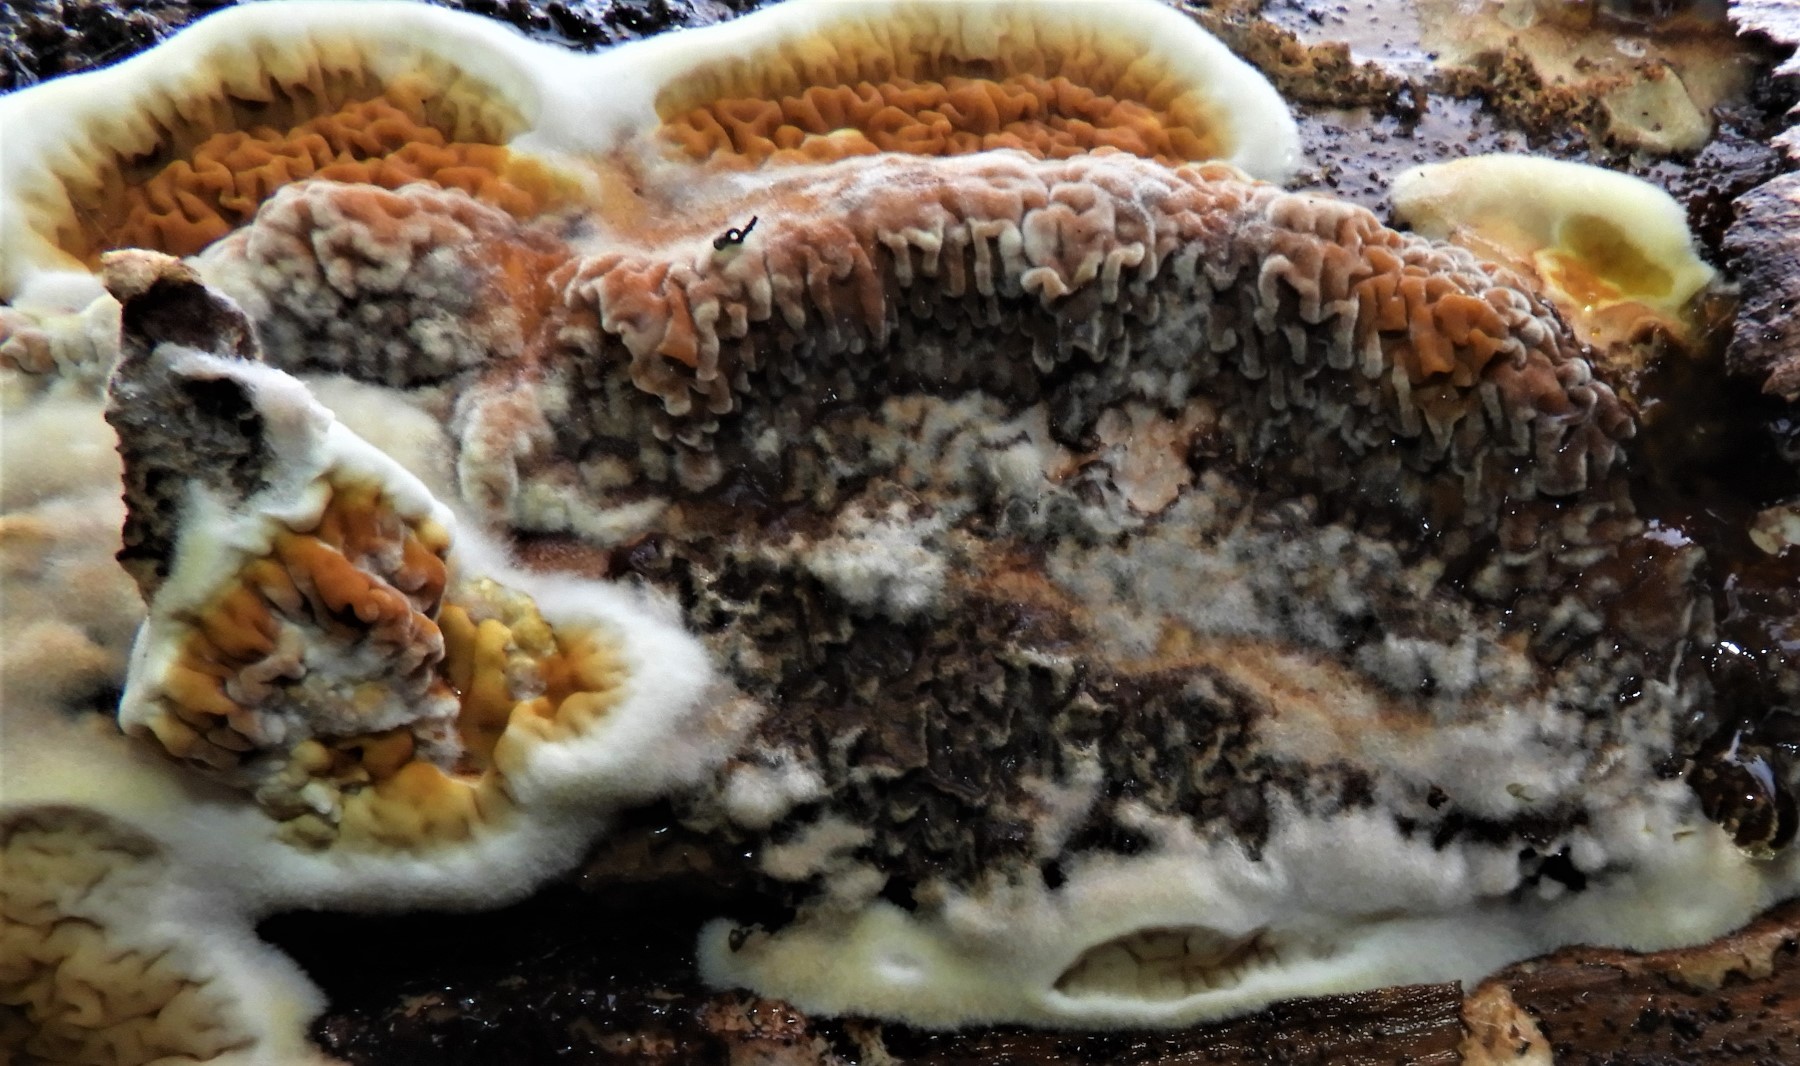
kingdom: Fungi
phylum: Basidiomycota
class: Agaricomycetes
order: Boletales
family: Serpulaceae
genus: Serpula
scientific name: Serpula himantioides
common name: tyndkødet hussvamp
